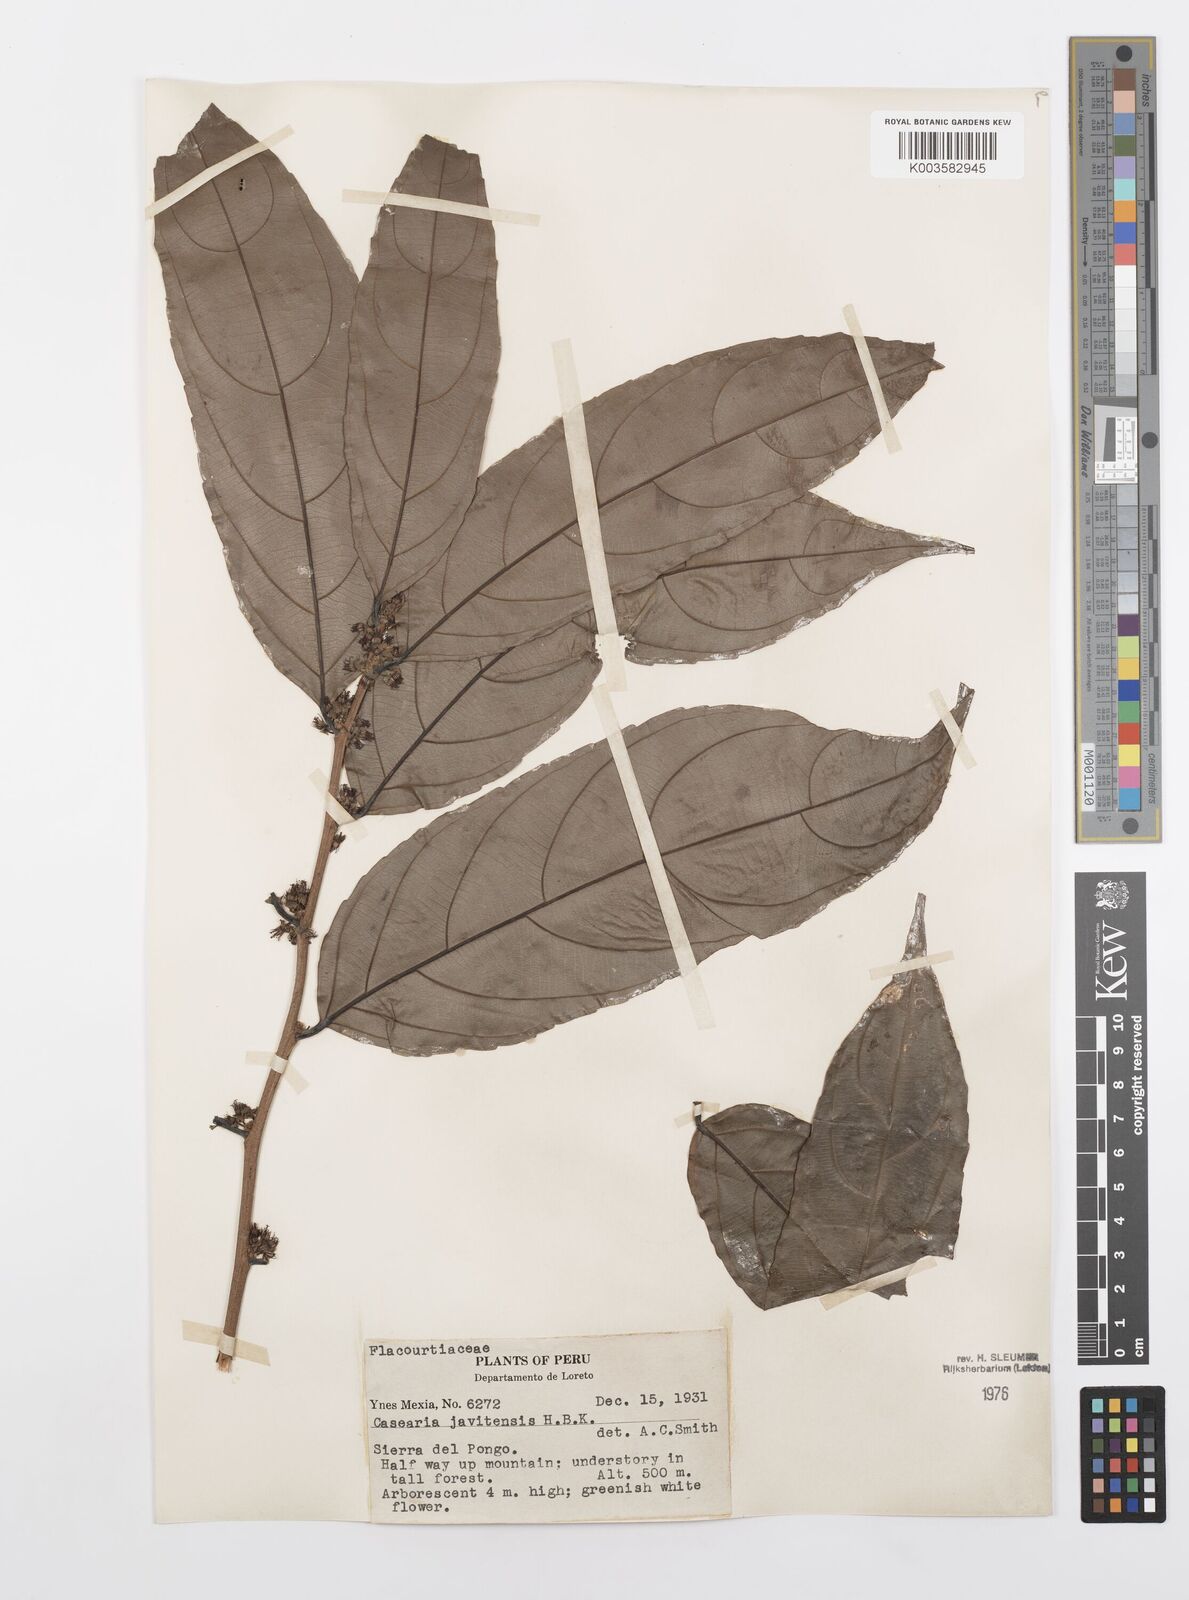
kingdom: Plantae
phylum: Tracheophyta
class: Magnoliopsida
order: Malpighiales
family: Salicaceae
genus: Piparea
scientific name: Piparea multiflora
